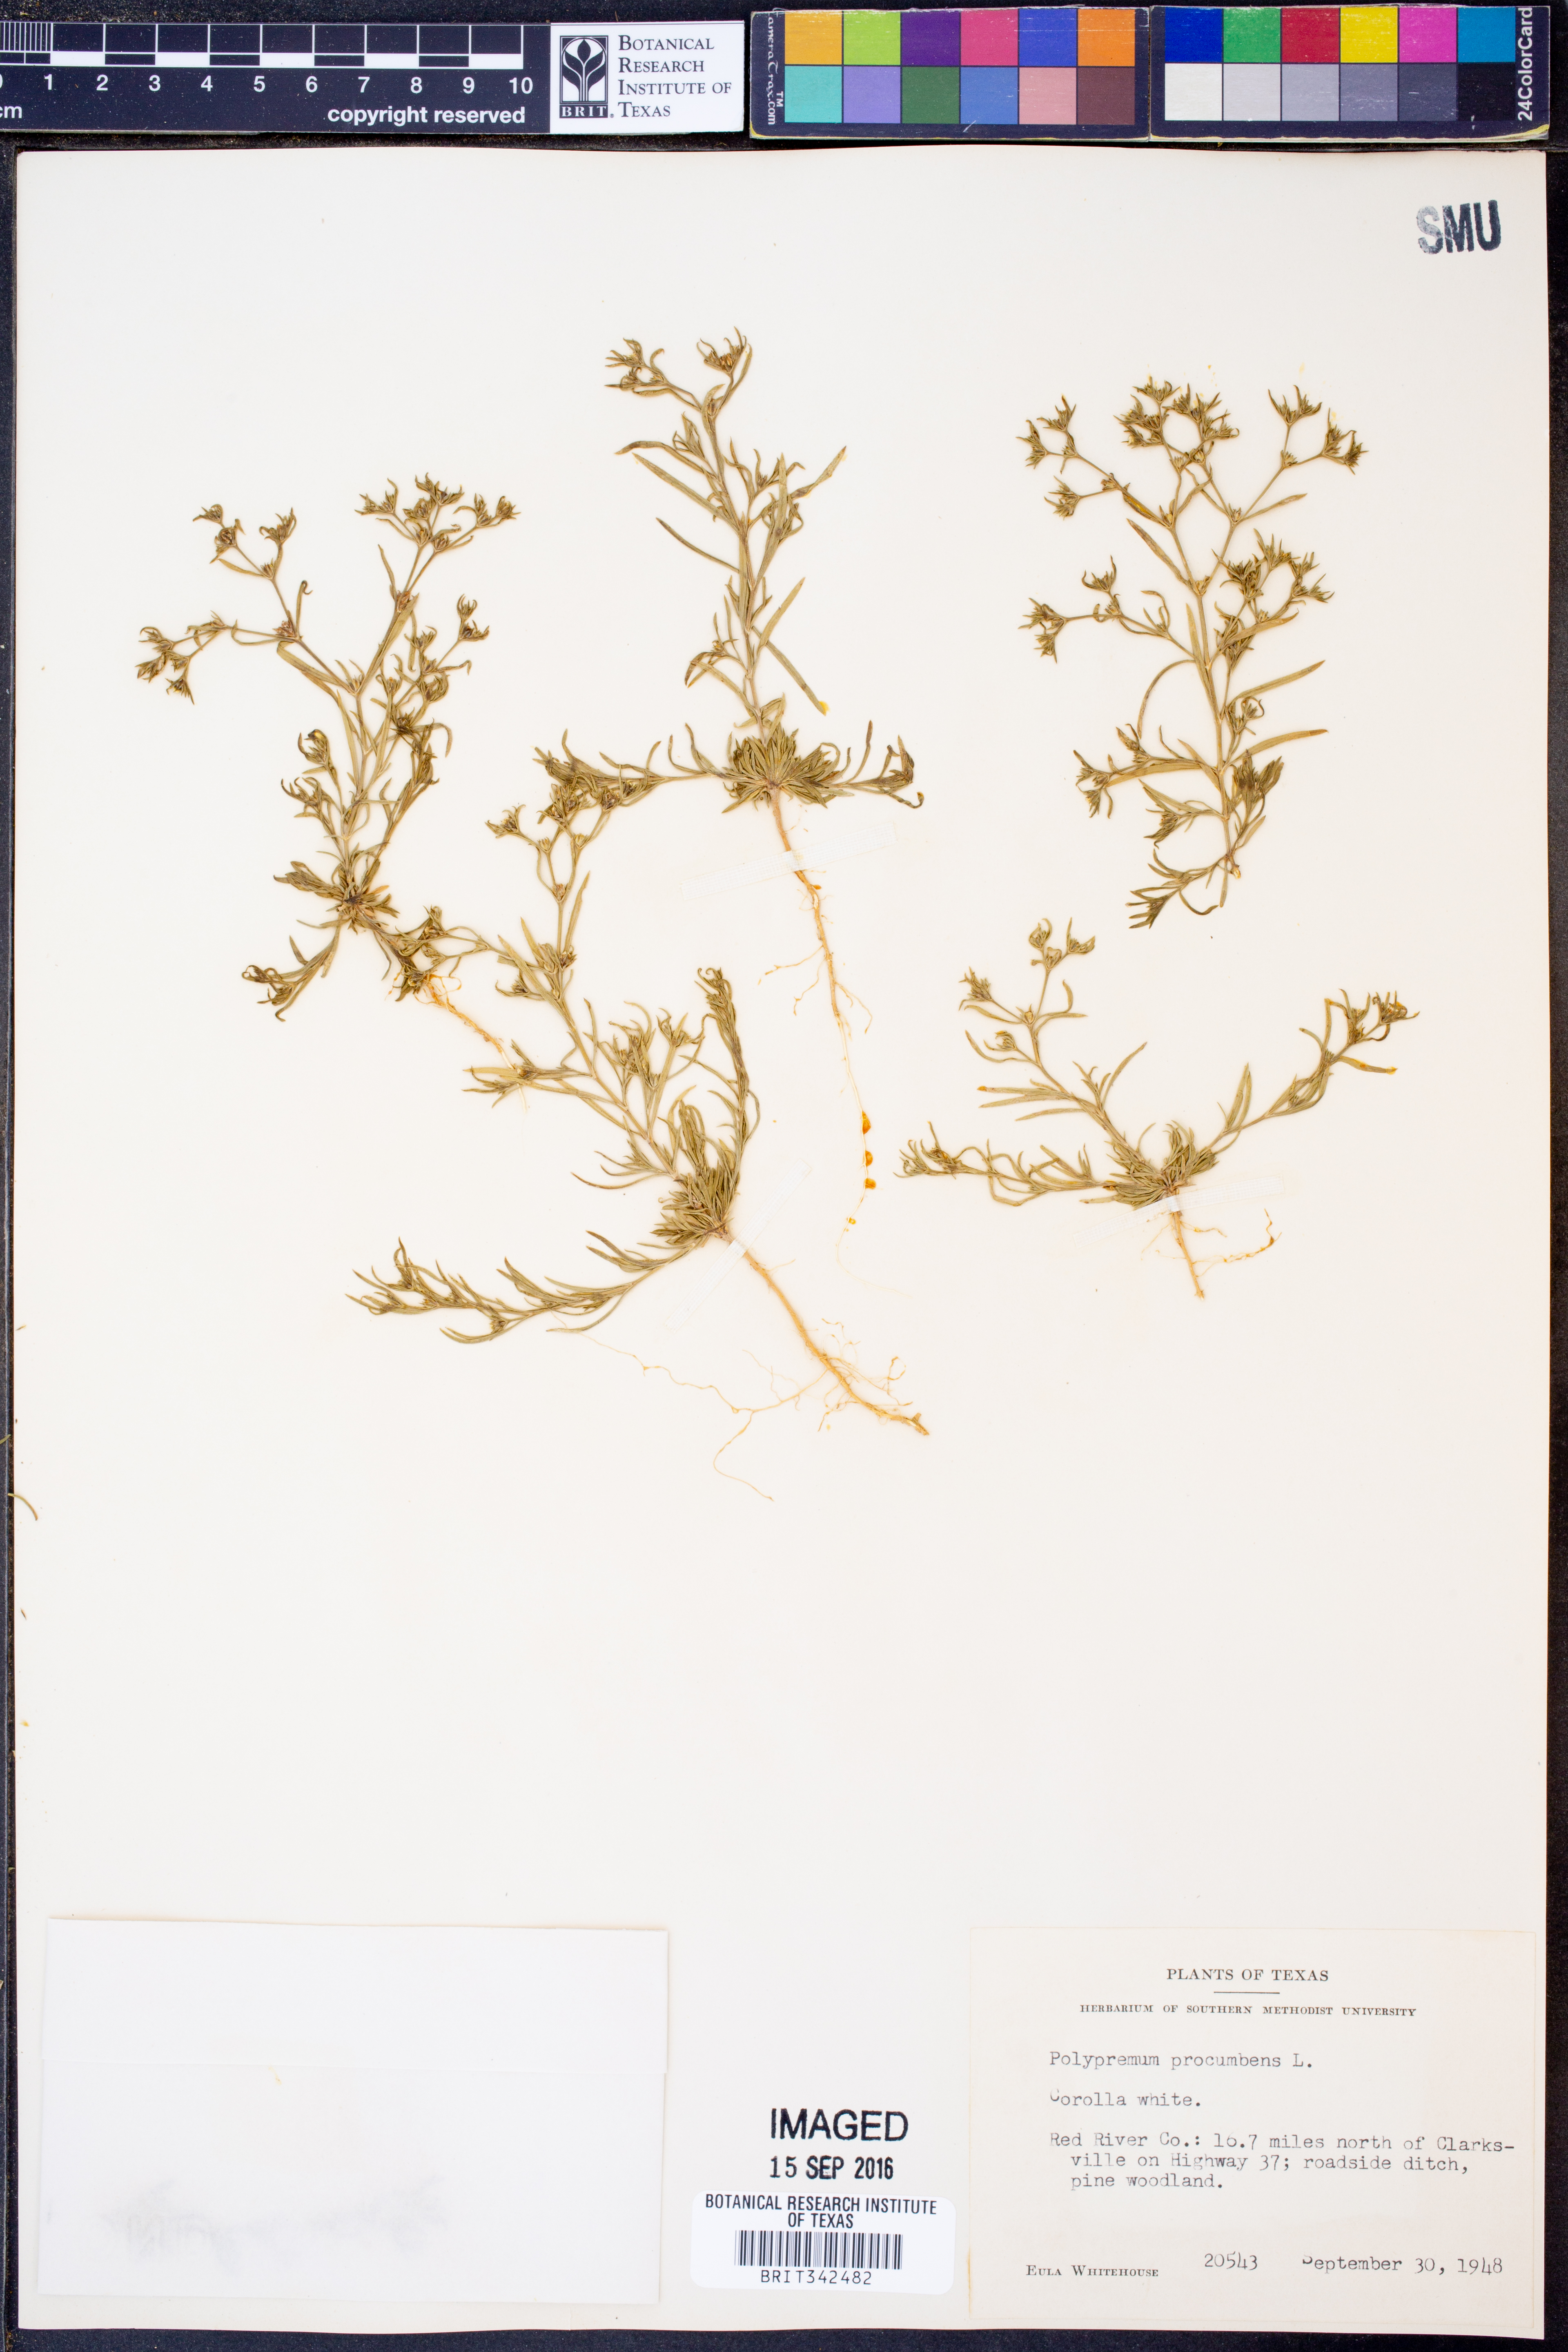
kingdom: Plantae
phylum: Tracheophyta
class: Magnoliopsida
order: Lamiales
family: Tetrachondraceae
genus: Polypremum
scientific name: Polypremum procumbens
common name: Juniper-leaf
